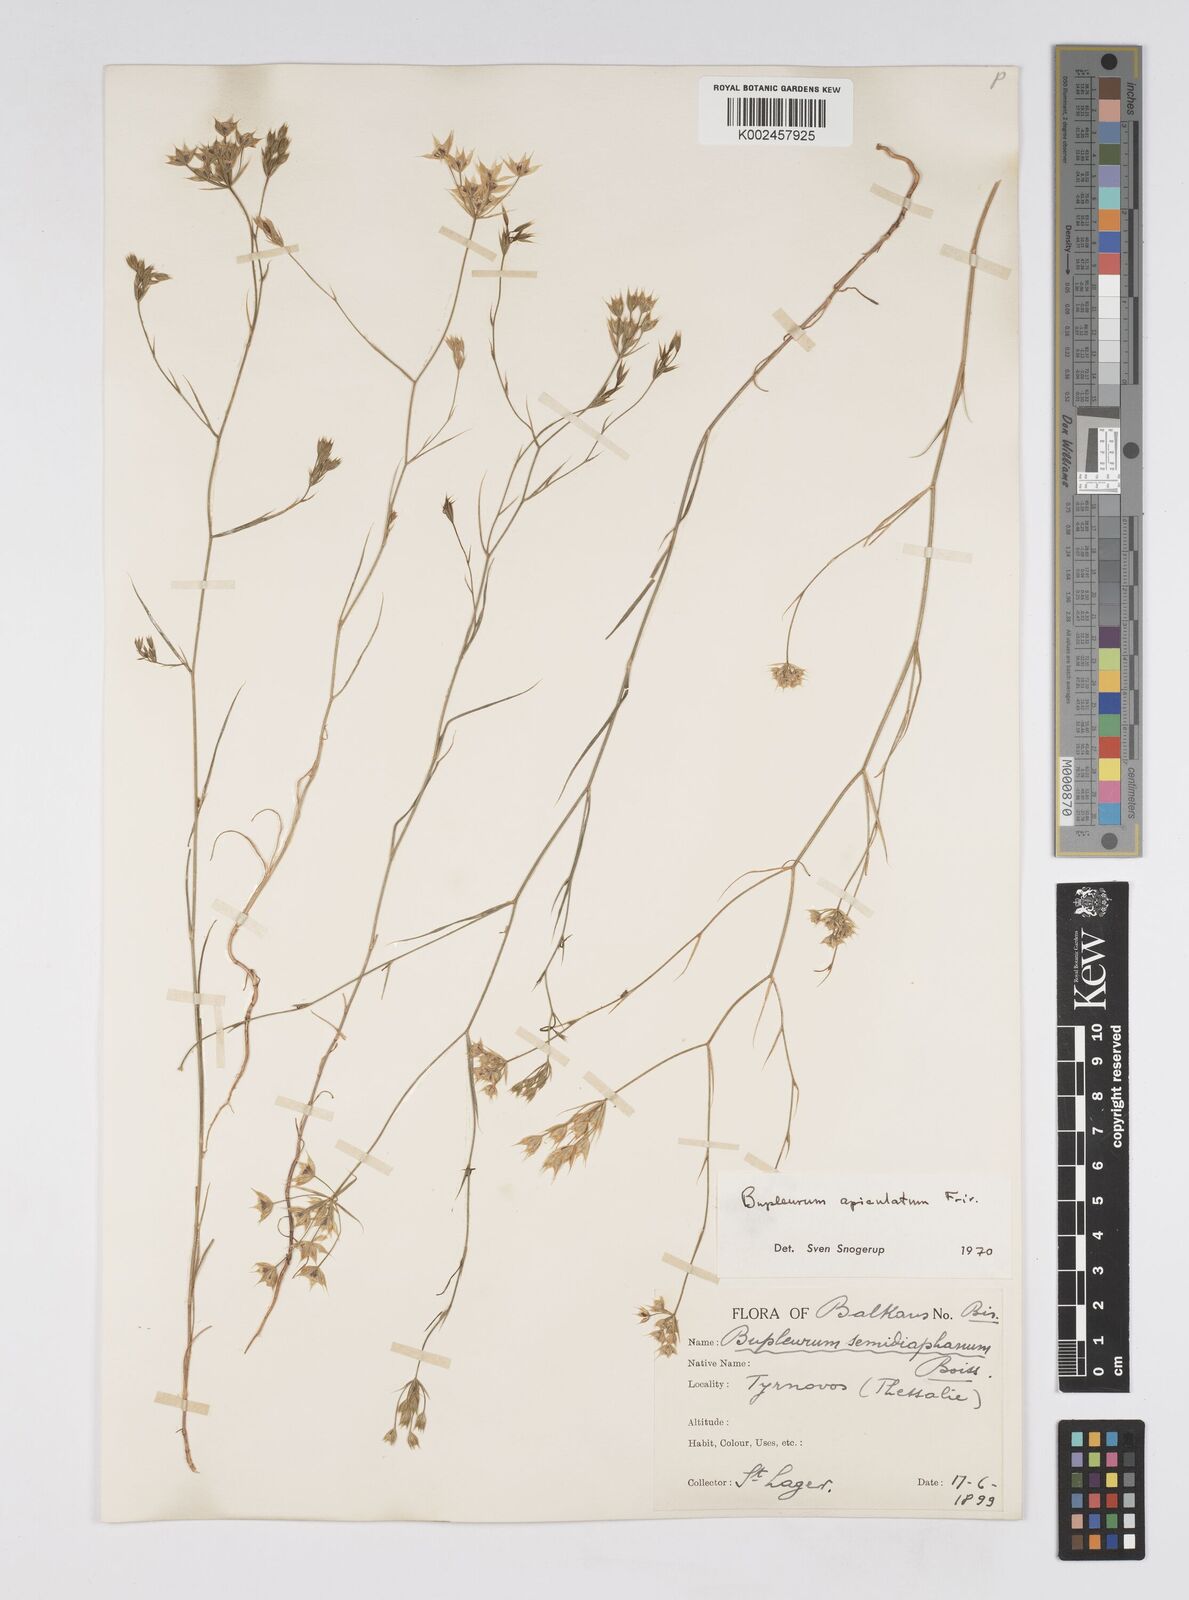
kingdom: Plantae
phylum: Tracheophyta
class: Magnoliopsida
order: Apiales
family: Apiaceae
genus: Bupleurum
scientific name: Bupleurum apiculatum
